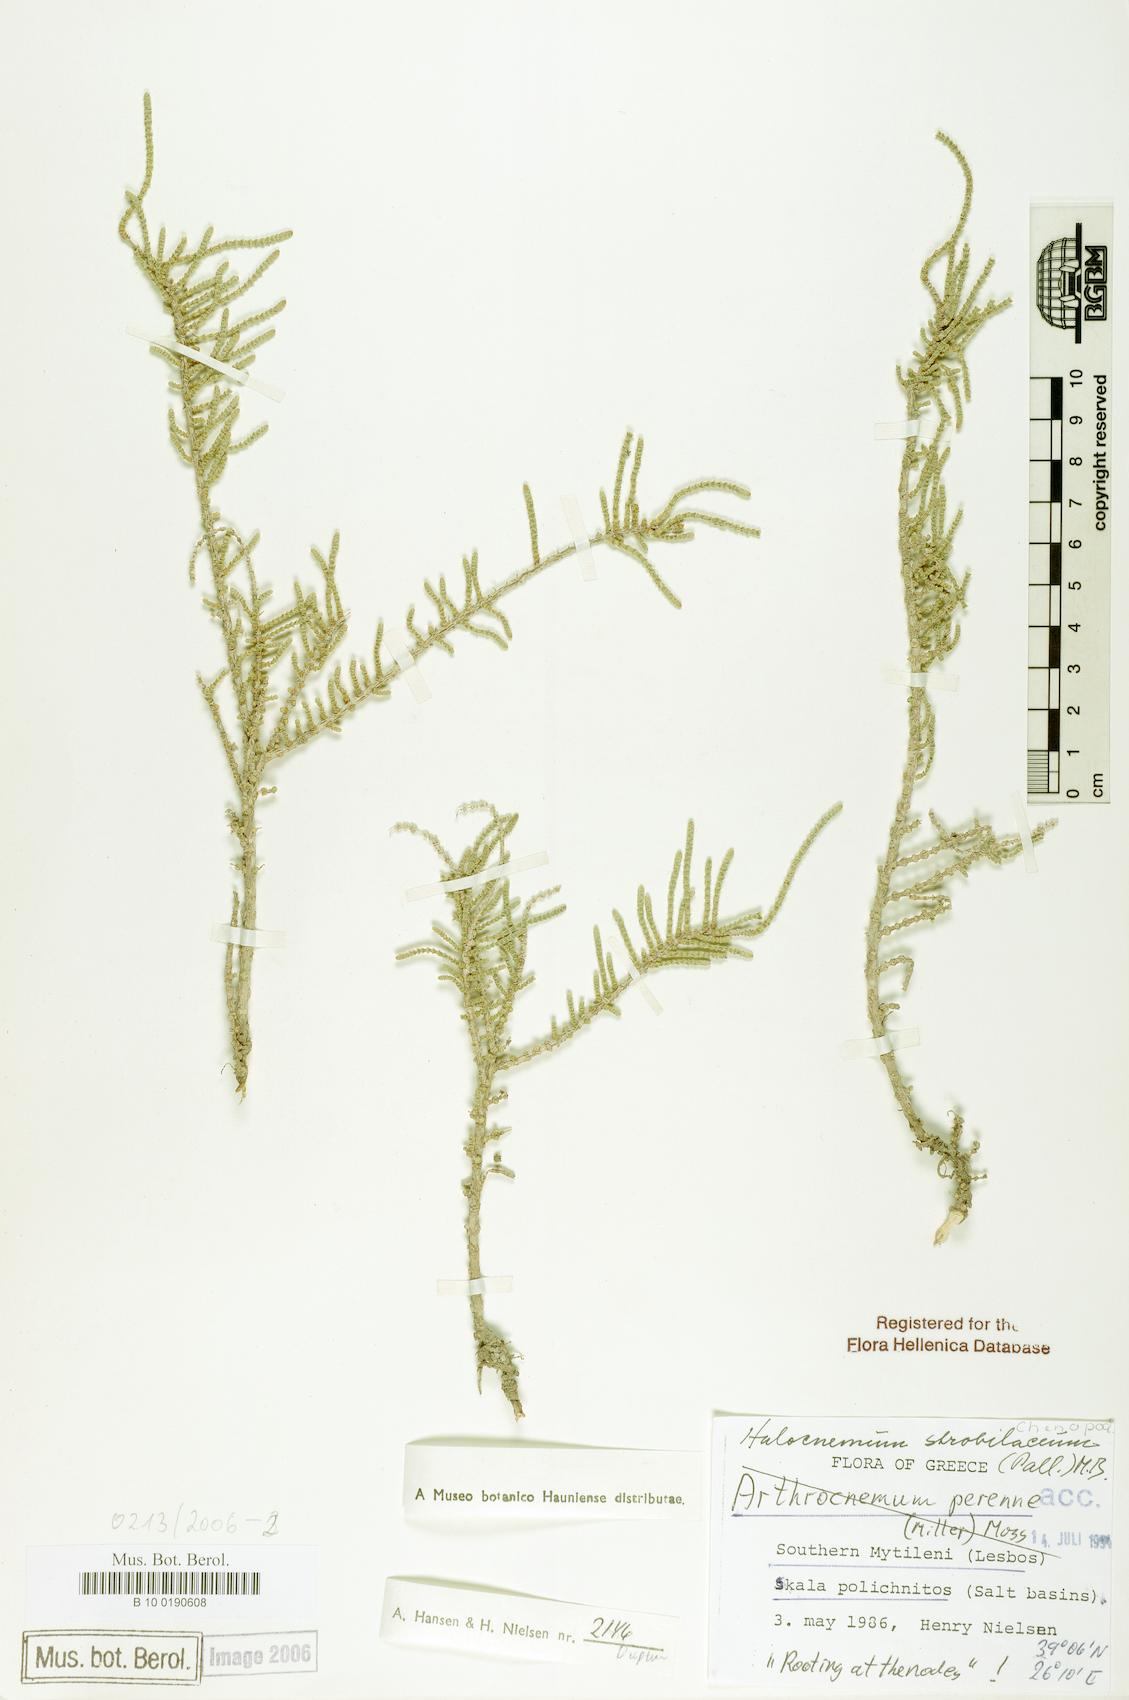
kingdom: Plantae
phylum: Tracheophyta
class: Magnoliopsida
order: Caryophyllales
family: Amaranthaceae
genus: Halocnemum
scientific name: Halocnemum strobilaceum
